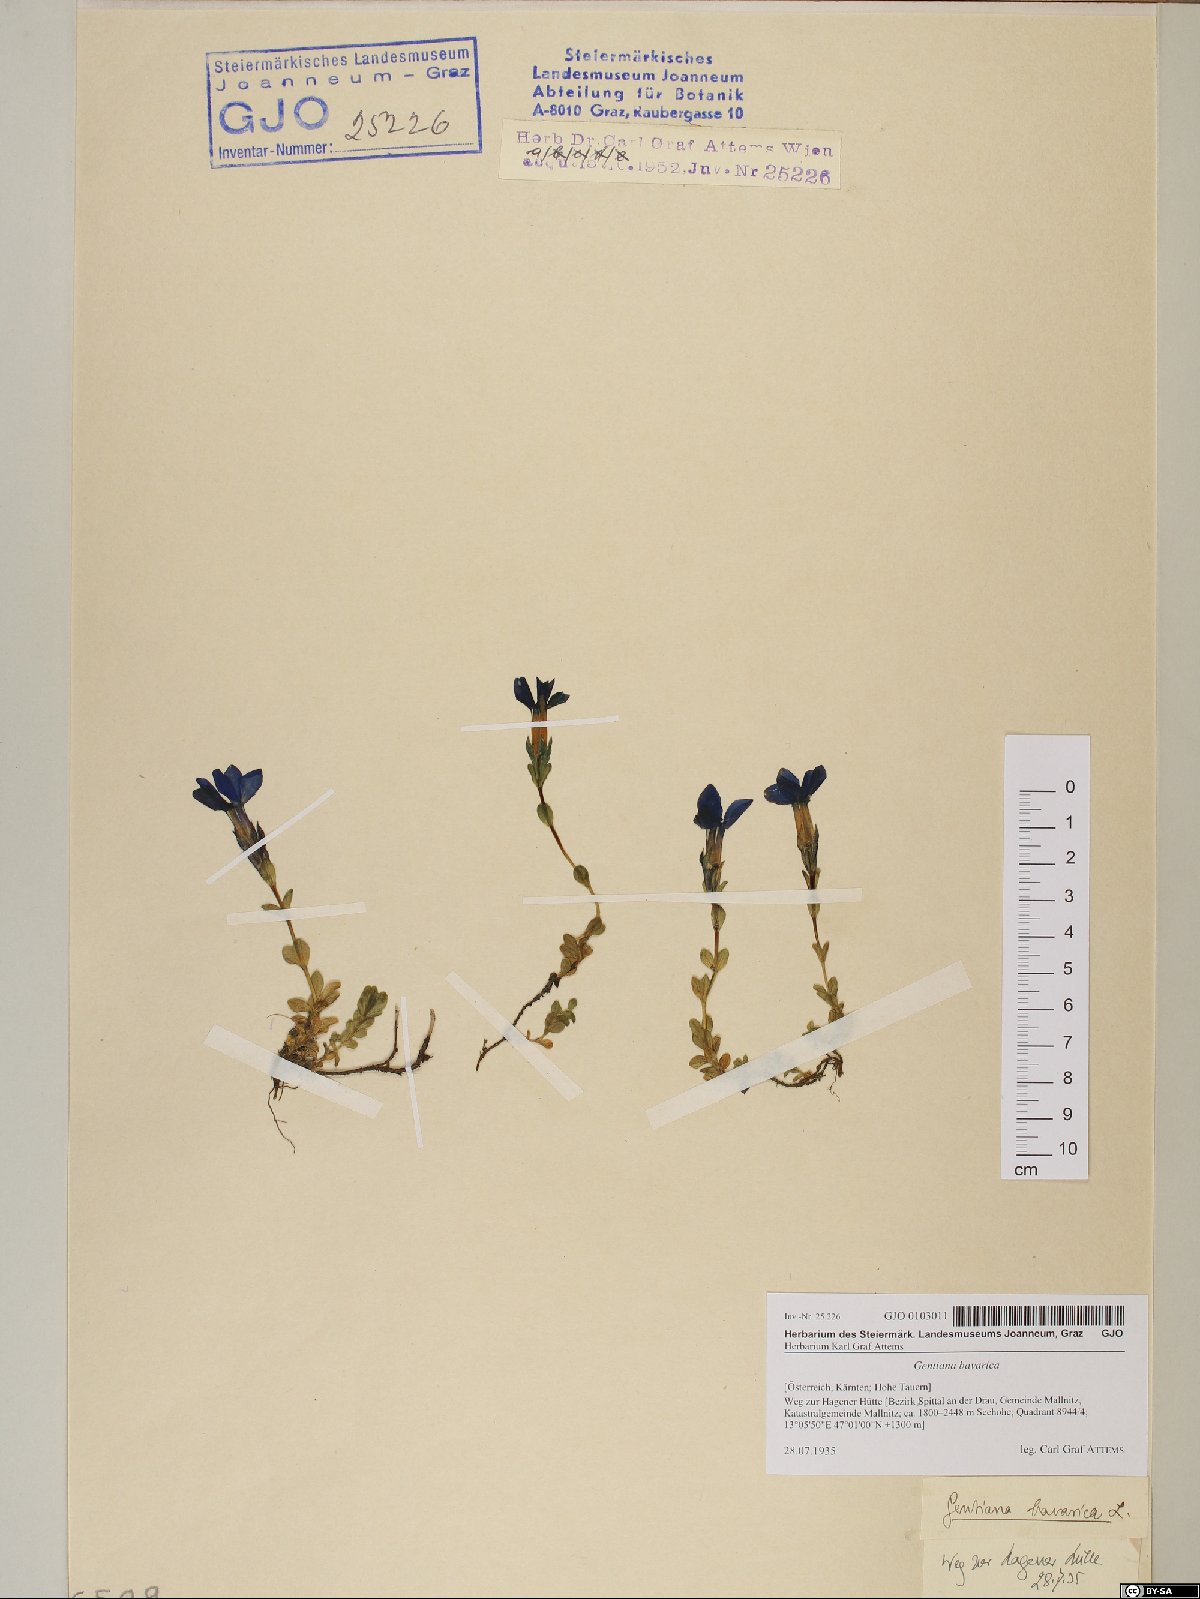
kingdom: Plantae
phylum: Tracheophyta
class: Magnoliopsida
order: Gentianales
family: Gentianaceae
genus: Gentiana
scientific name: Gentiana bavarica
